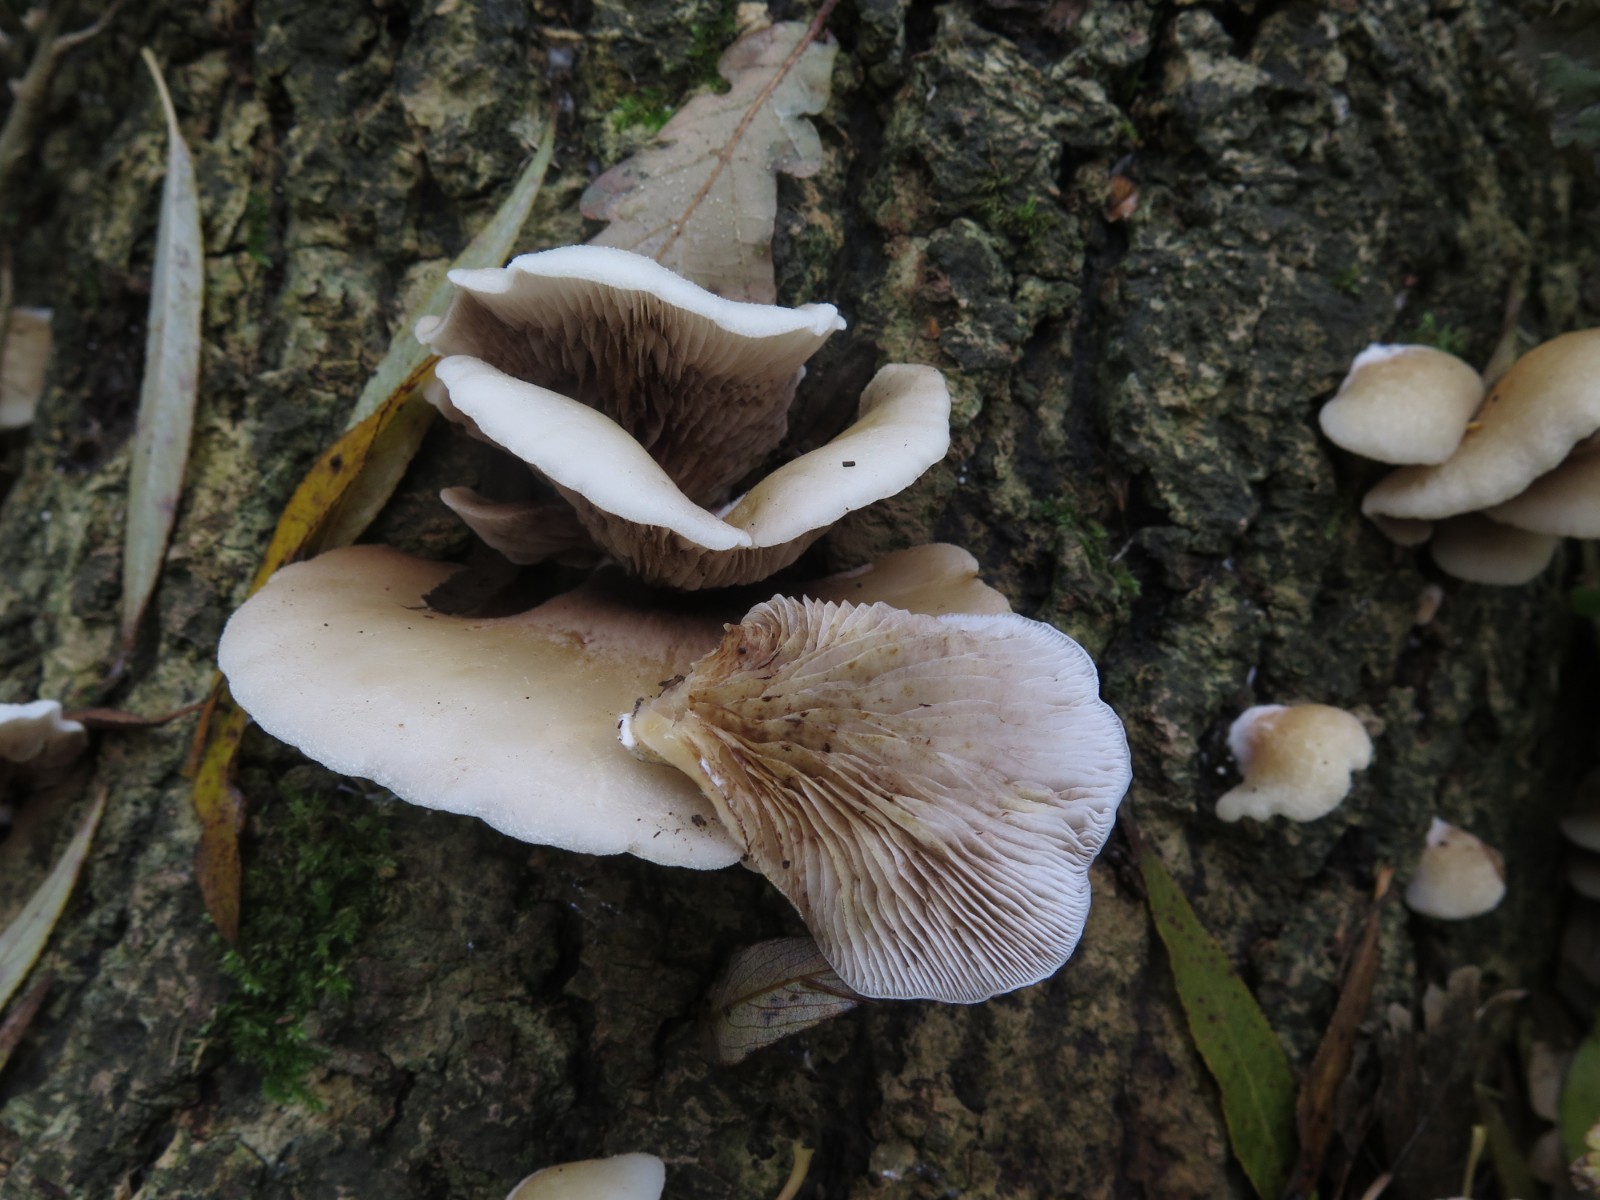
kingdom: Fungi
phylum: Basidiomycota
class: Agaricomycetes
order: Agaricales
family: Crepidotaceae
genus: Crepidotus
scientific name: Crepidotus mollis
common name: blød muslingesvamp
